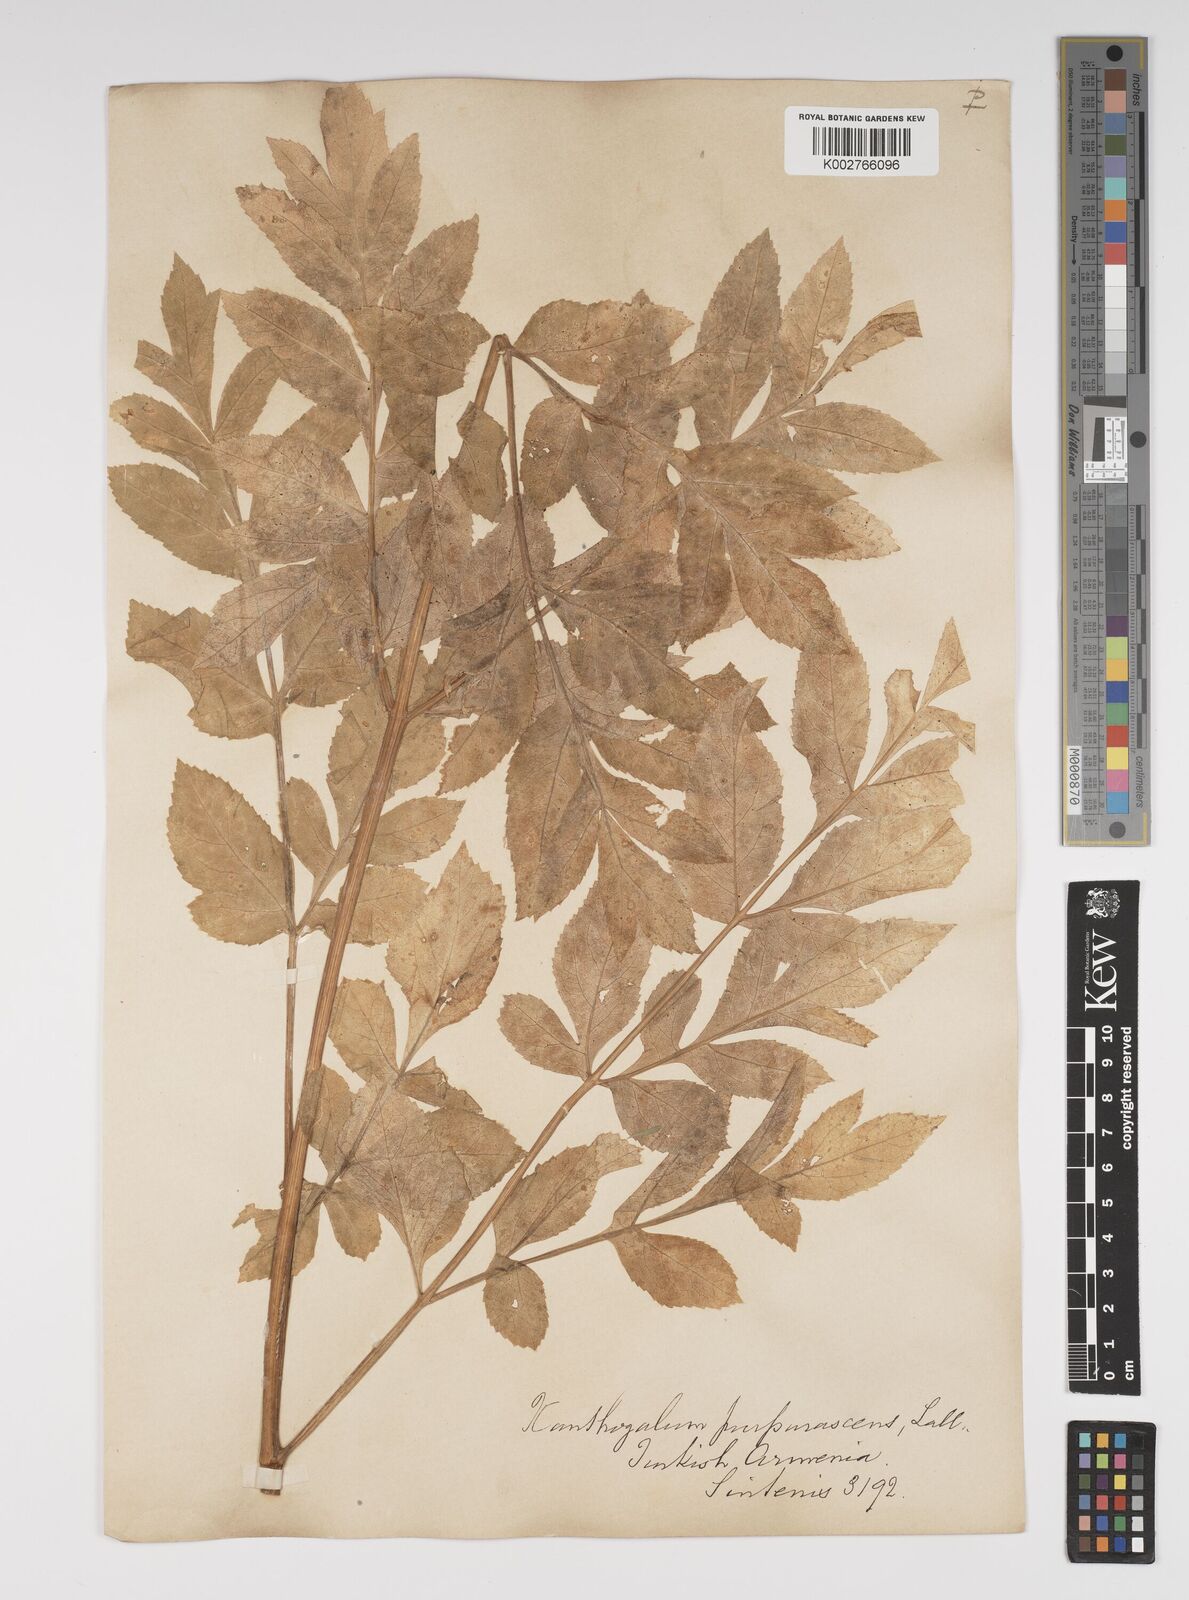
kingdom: Plantae
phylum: Tracheophyta
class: Magnoliopsida
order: Apiales
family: Apiaceae
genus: Xanthogalum
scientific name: Xanthogalum purpurascens
